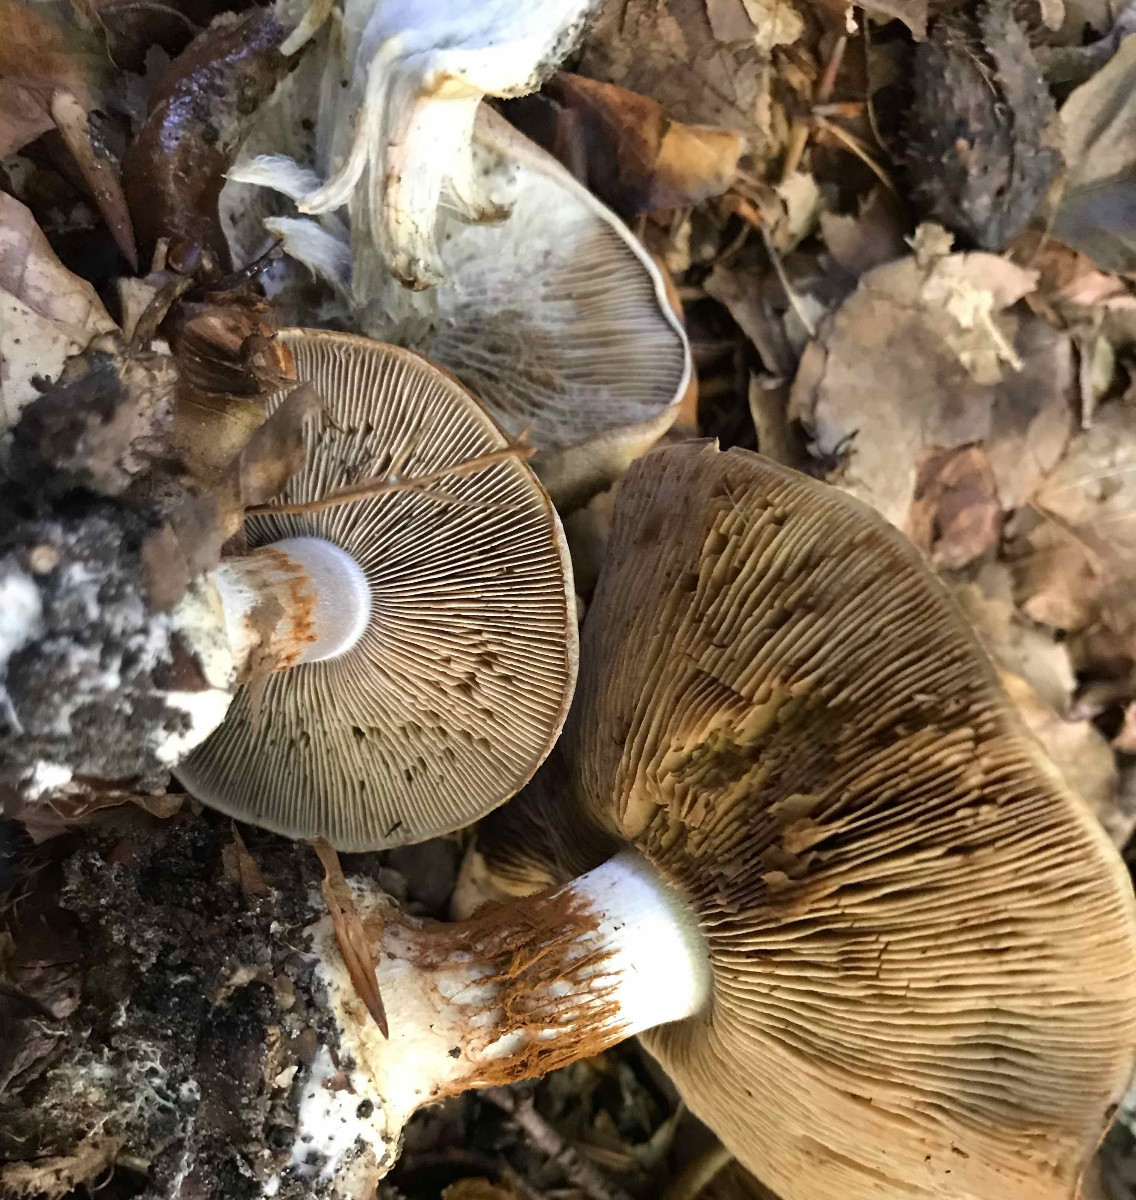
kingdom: Fungi
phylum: Basidiomycota
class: Agaricomycetes
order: Agaricales
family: Cortinariaceae
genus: Cortinarius
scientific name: Cortinarius anserinus
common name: bøge-slørhat
